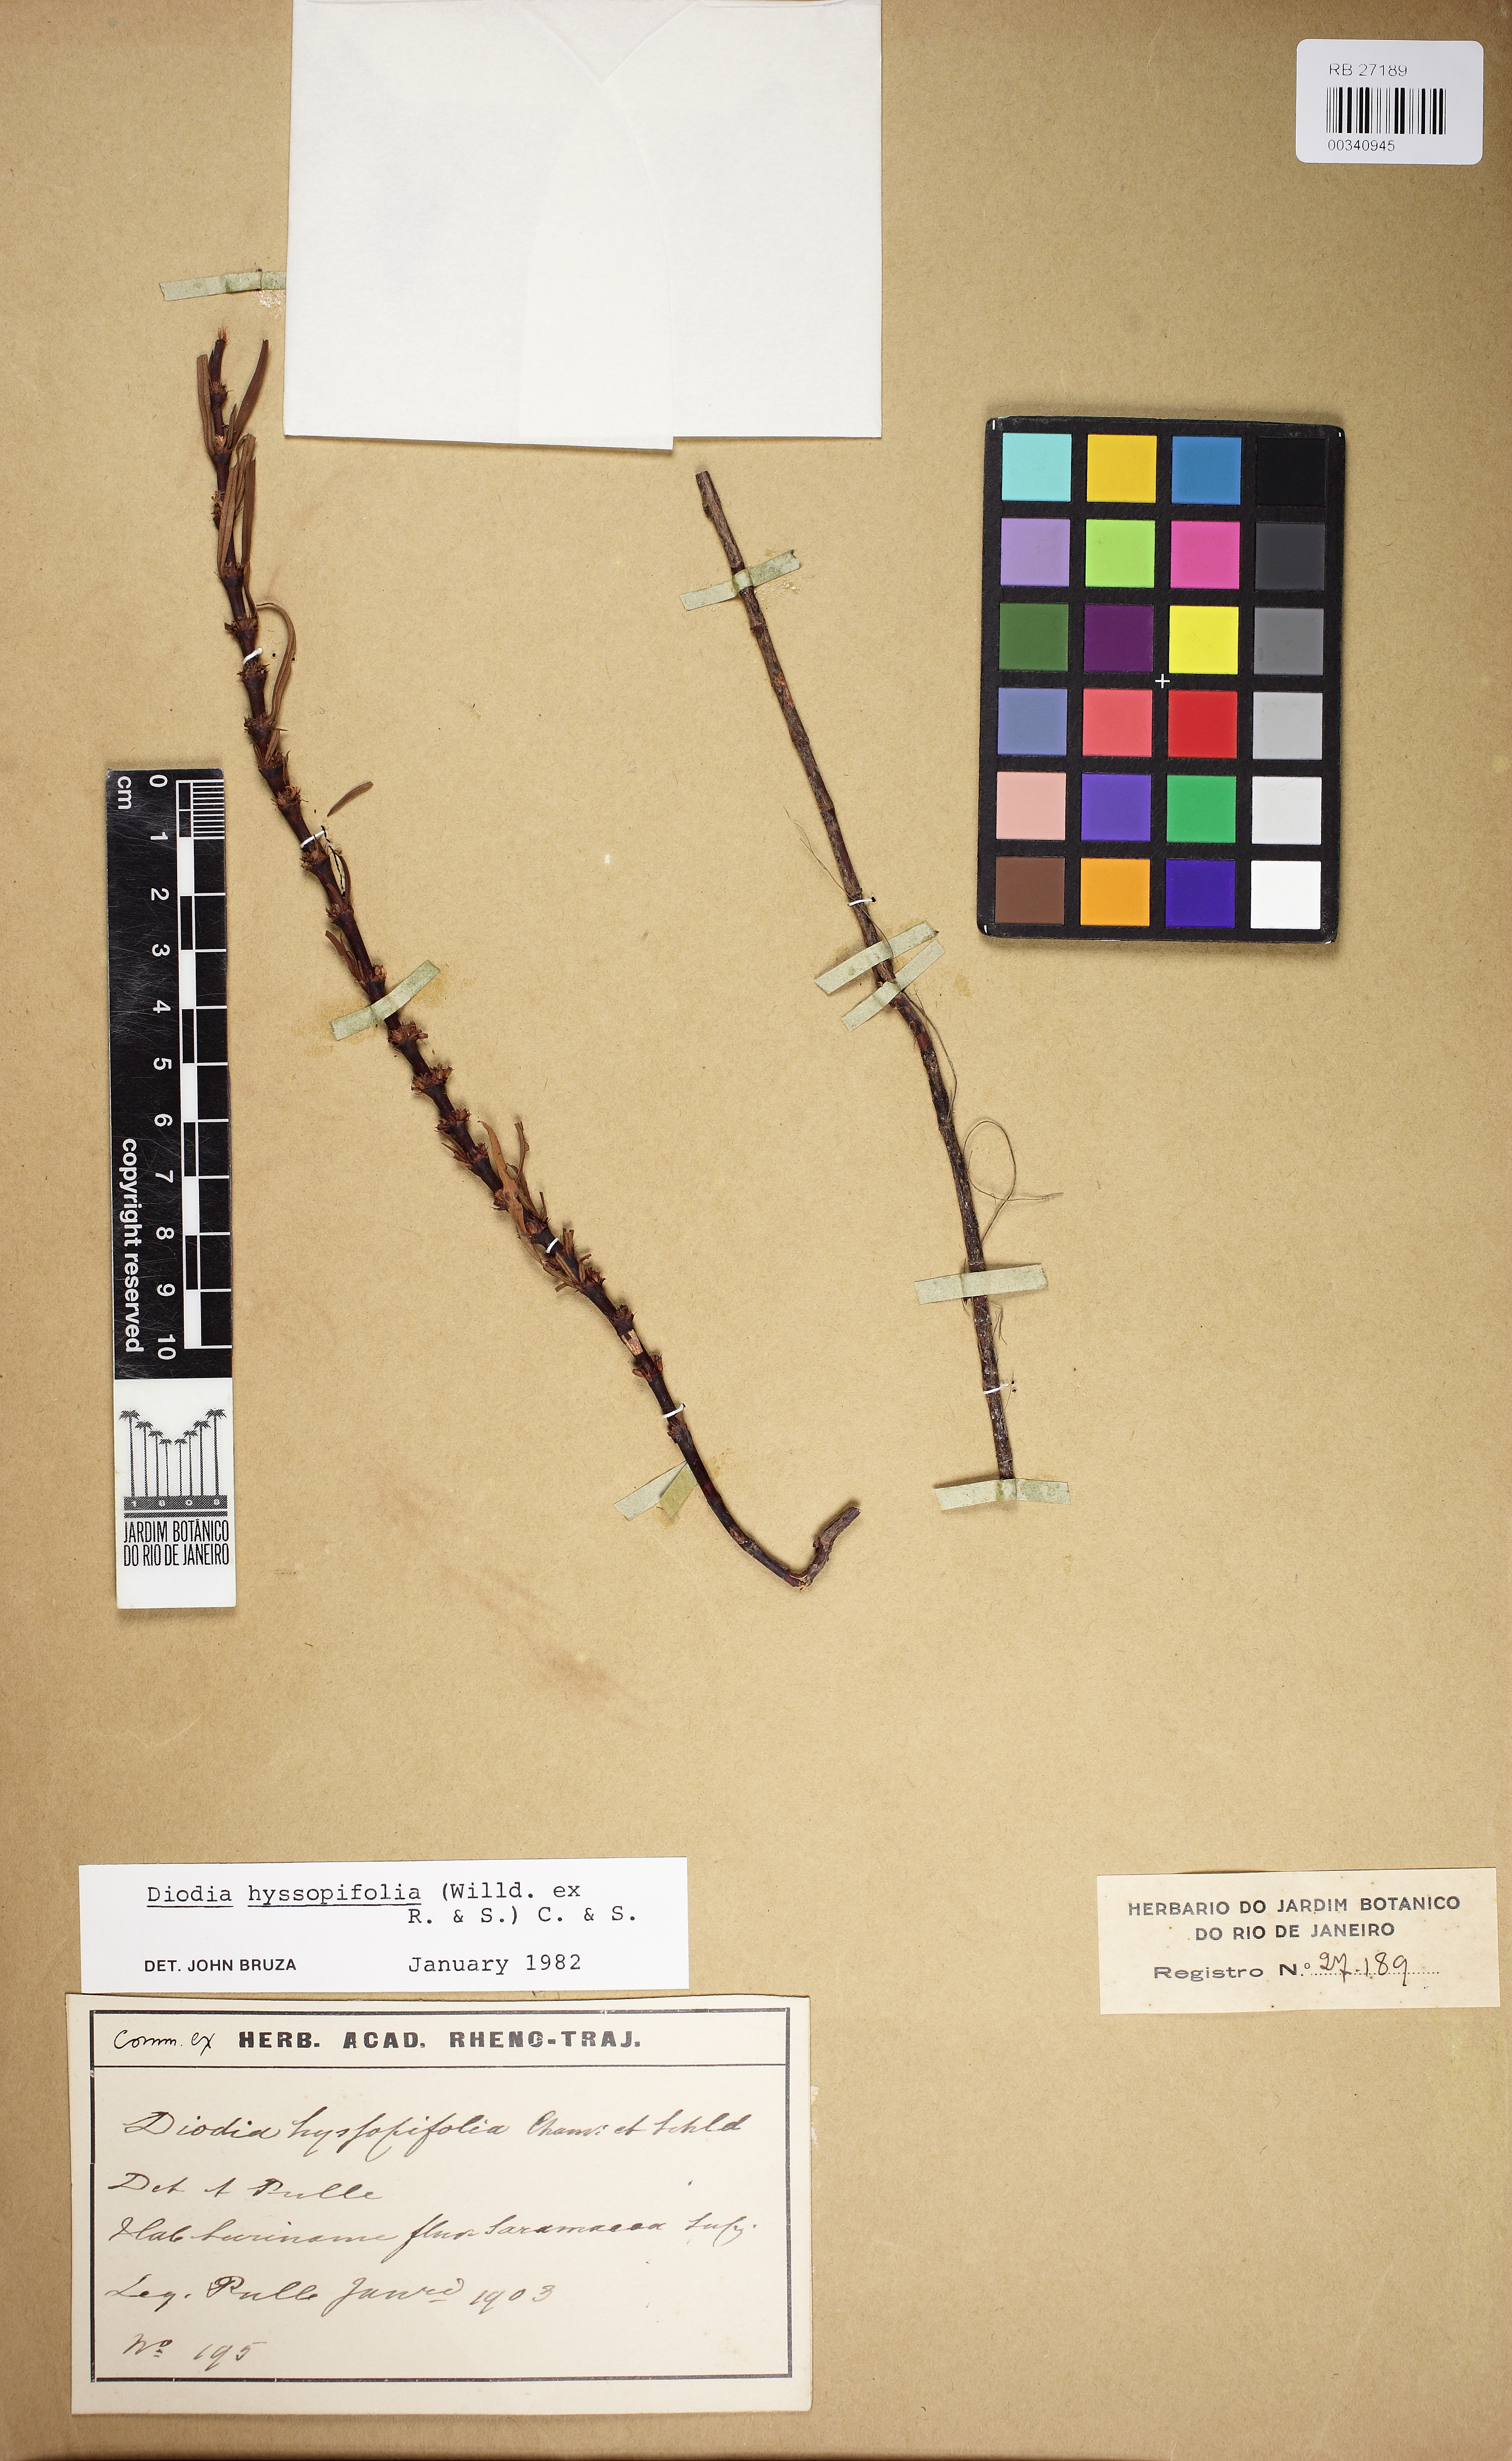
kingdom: Plantae
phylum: Tracheophyta
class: Magnoliopsida
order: Gentianales
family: Rubiaceae
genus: Spermacoce
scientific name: Spermacoce hyssopifolia
